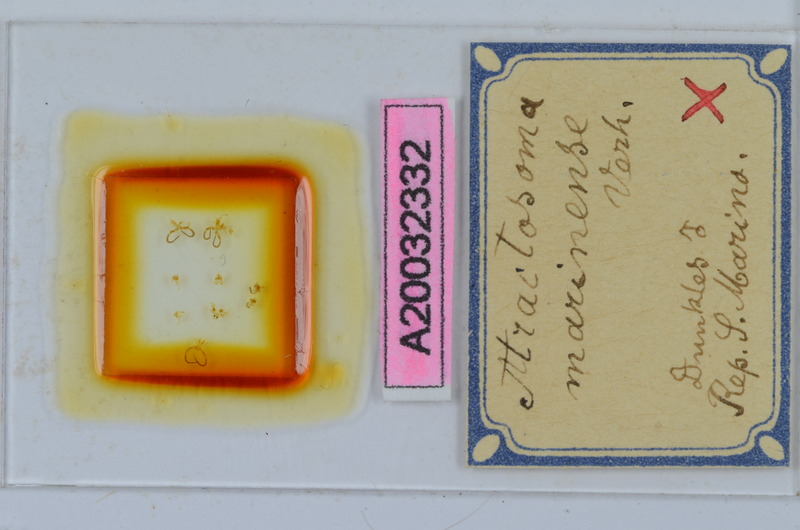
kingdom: Animalia
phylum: Arthropoda
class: Diplopoda
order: Chordeumatida
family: Craspedosomatidae
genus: Atractosoma
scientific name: Atractosoma marinense
